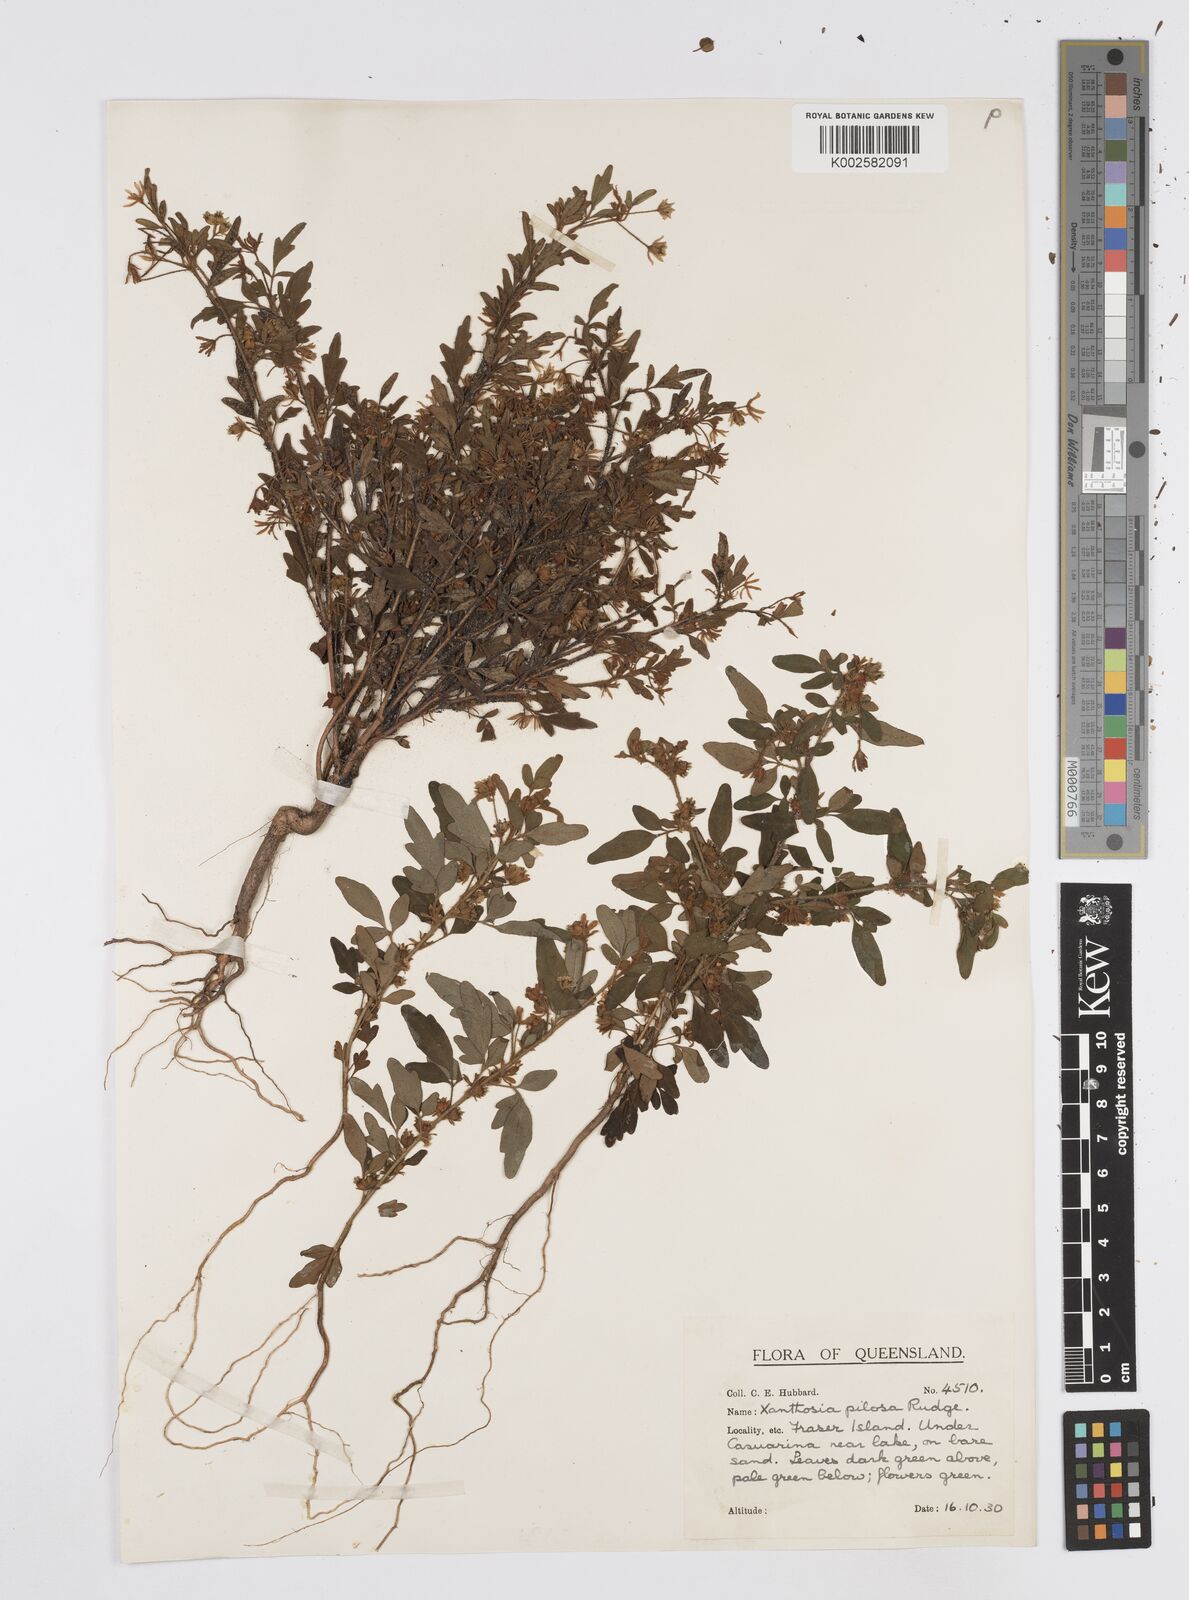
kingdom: Plantae
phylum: Tracheophyta
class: Magnoliopsida
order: Apiales
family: Apiaceae
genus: Xanthosia
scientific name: Xanthosia pilosa
